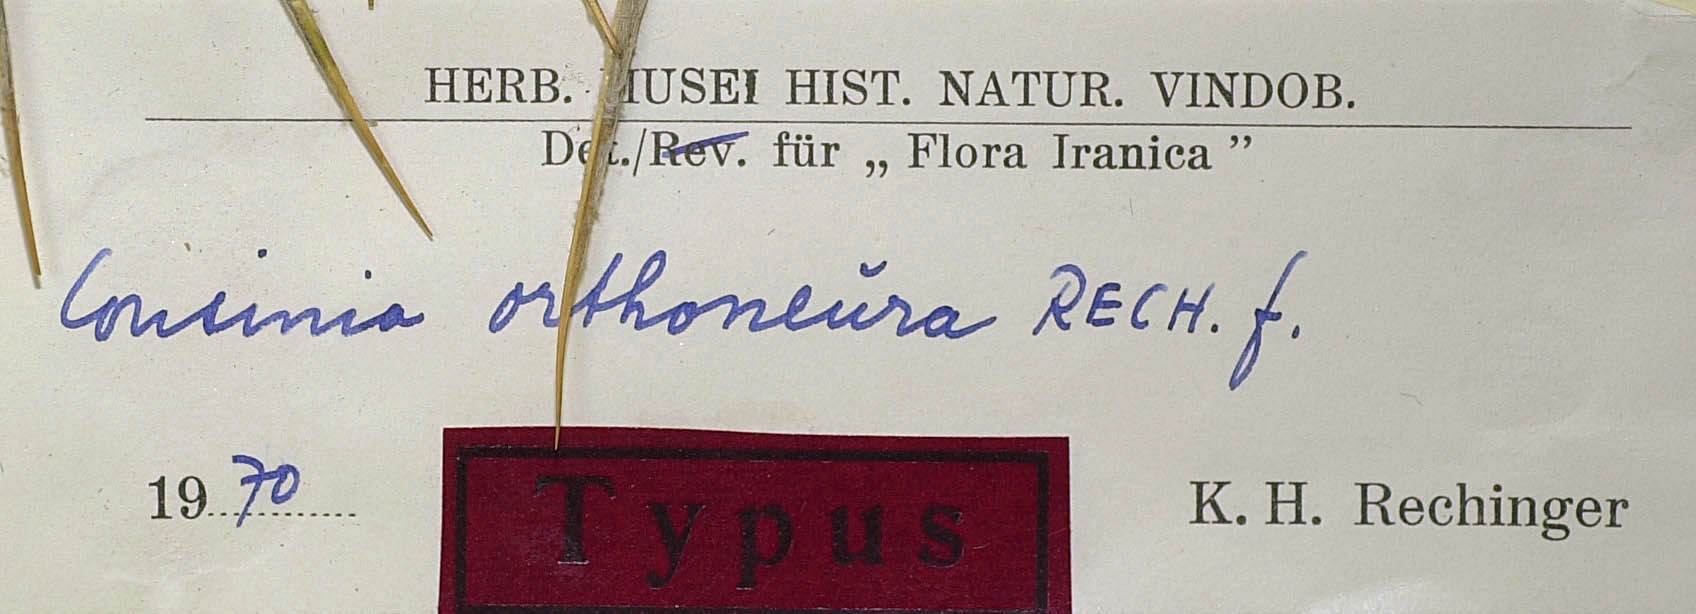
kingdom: Plantae
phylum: Tracheophyta
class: Magnoliopsida
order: Asterales
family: Asteraceae
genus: Cousinia
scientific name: Cousinia orthoneura
